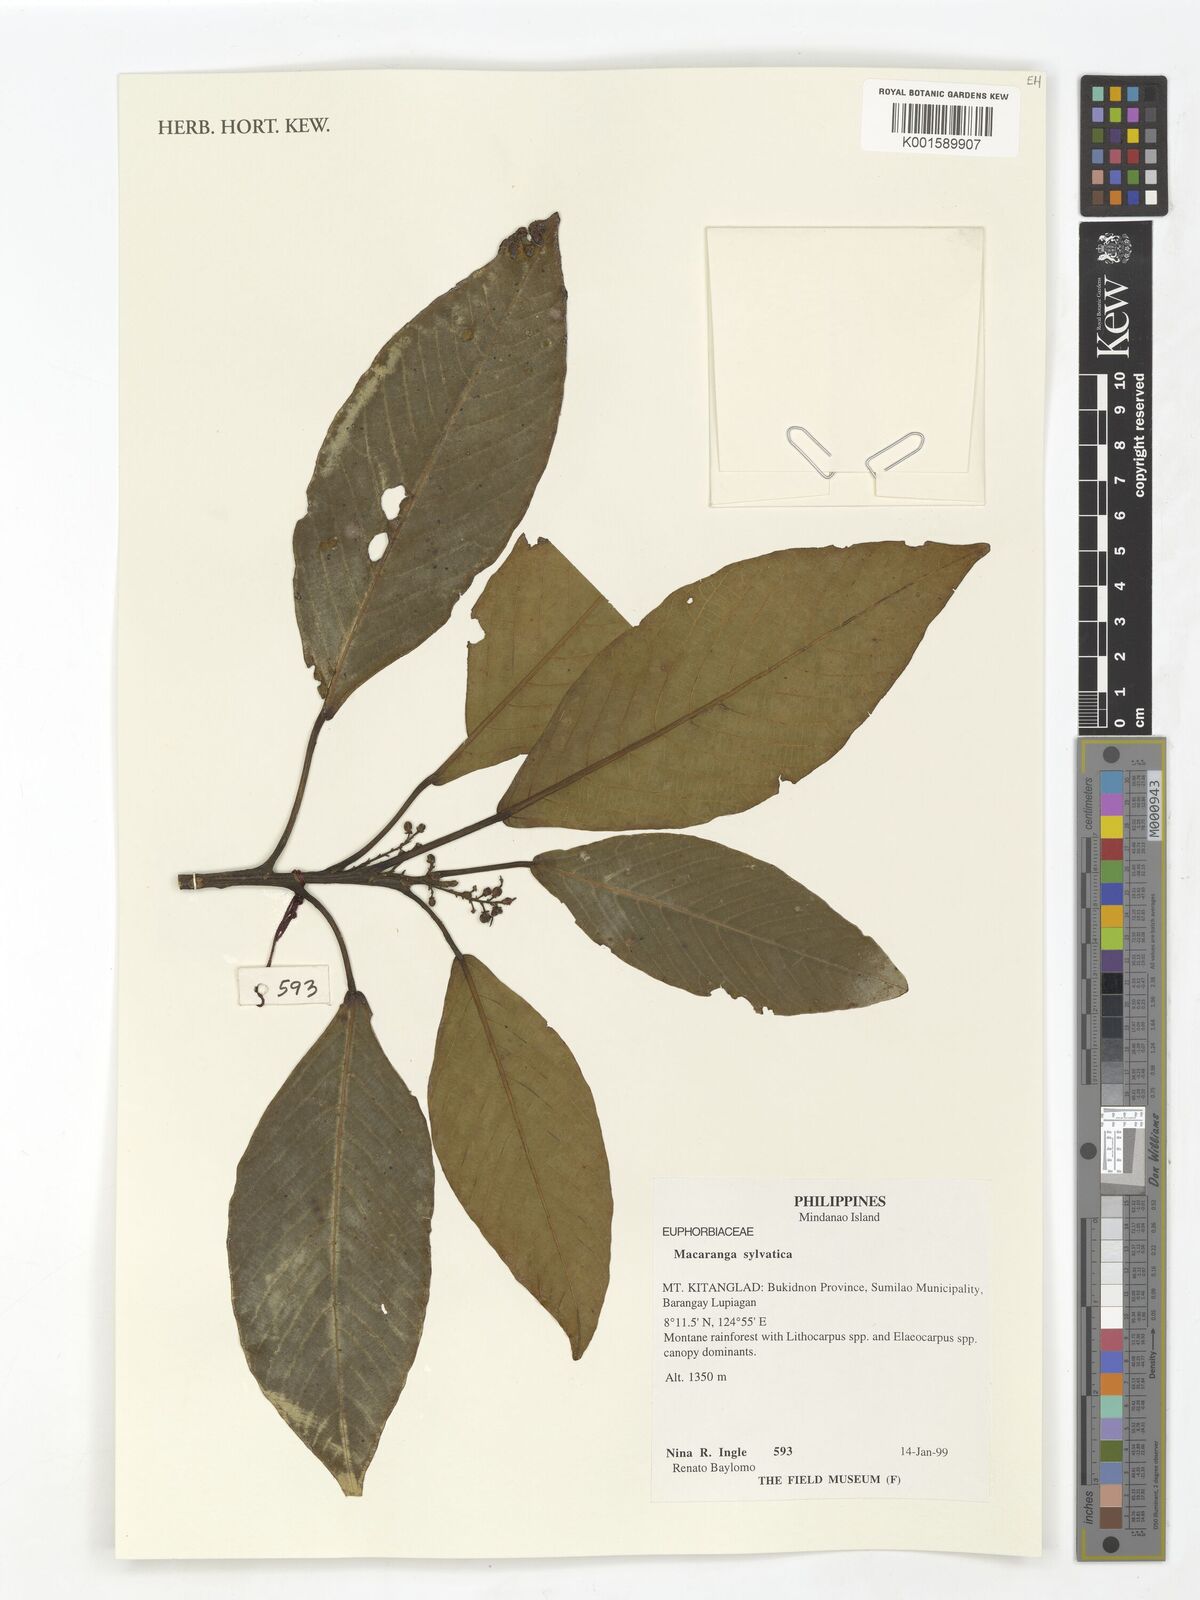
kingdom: Plantae
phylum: Tracheophyta
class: Magnoliopsida
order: Malpighiales
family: Euphorbiaceae
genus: Macaranga
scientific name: Macaranga sylvatica
